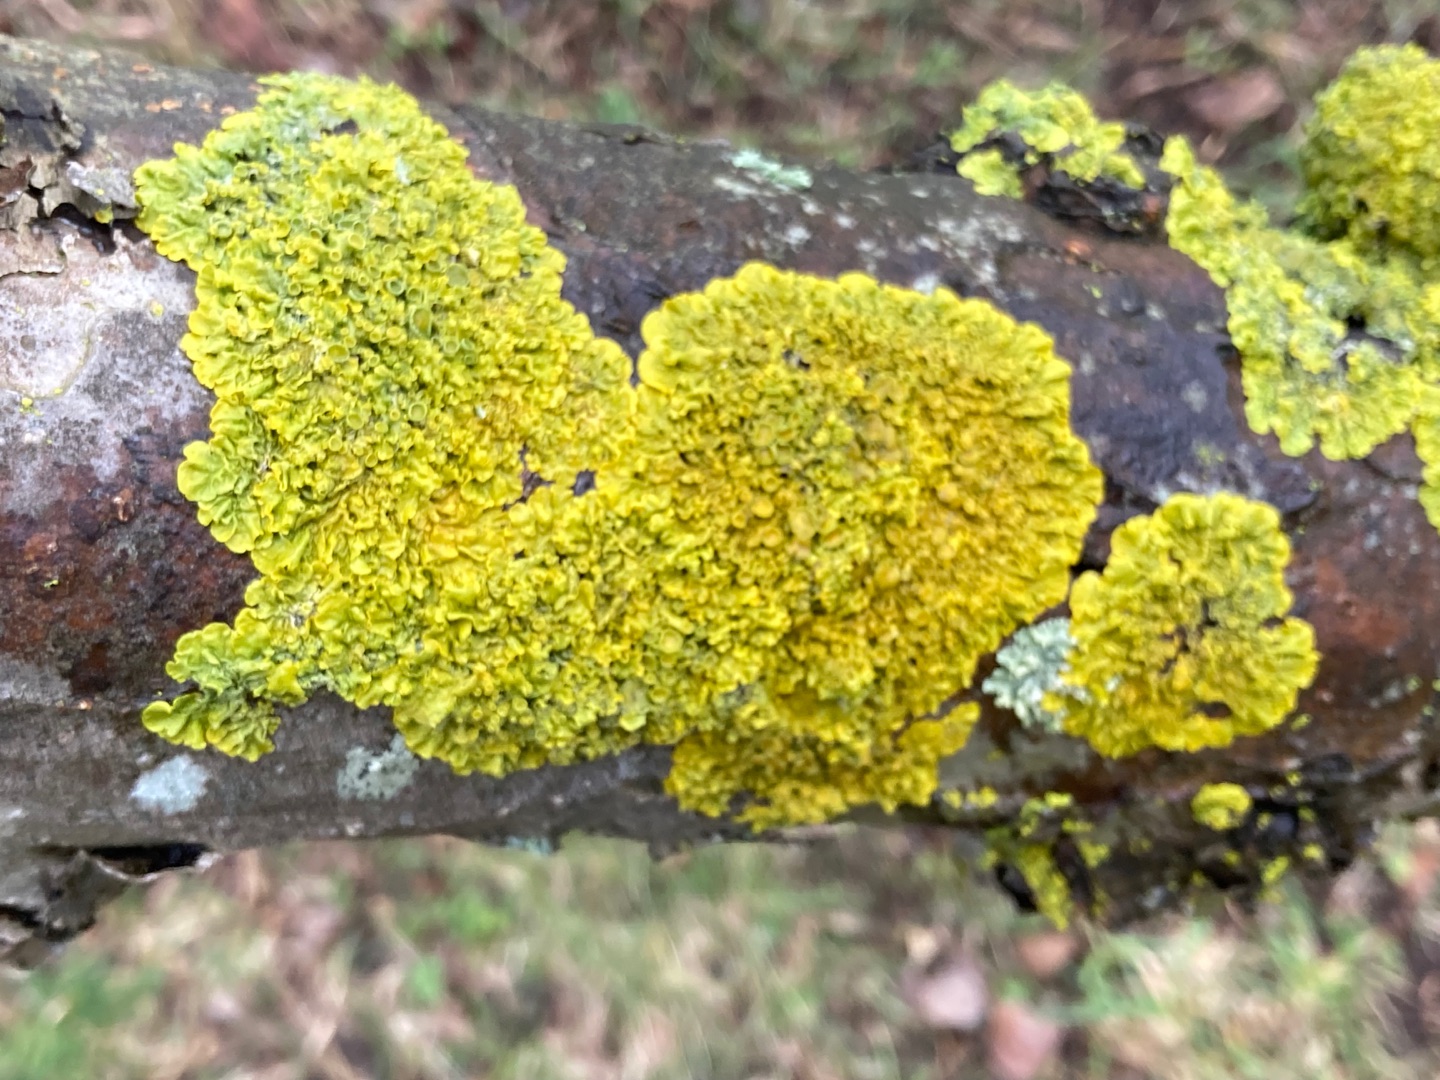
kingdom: Fungi
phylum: Ascomycota
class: Lecanoromycetes
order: Teloschistales
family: Teloschistaceae
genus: Xanthoria
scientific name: Xanthoria parietina
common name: Almindelig væggelav
